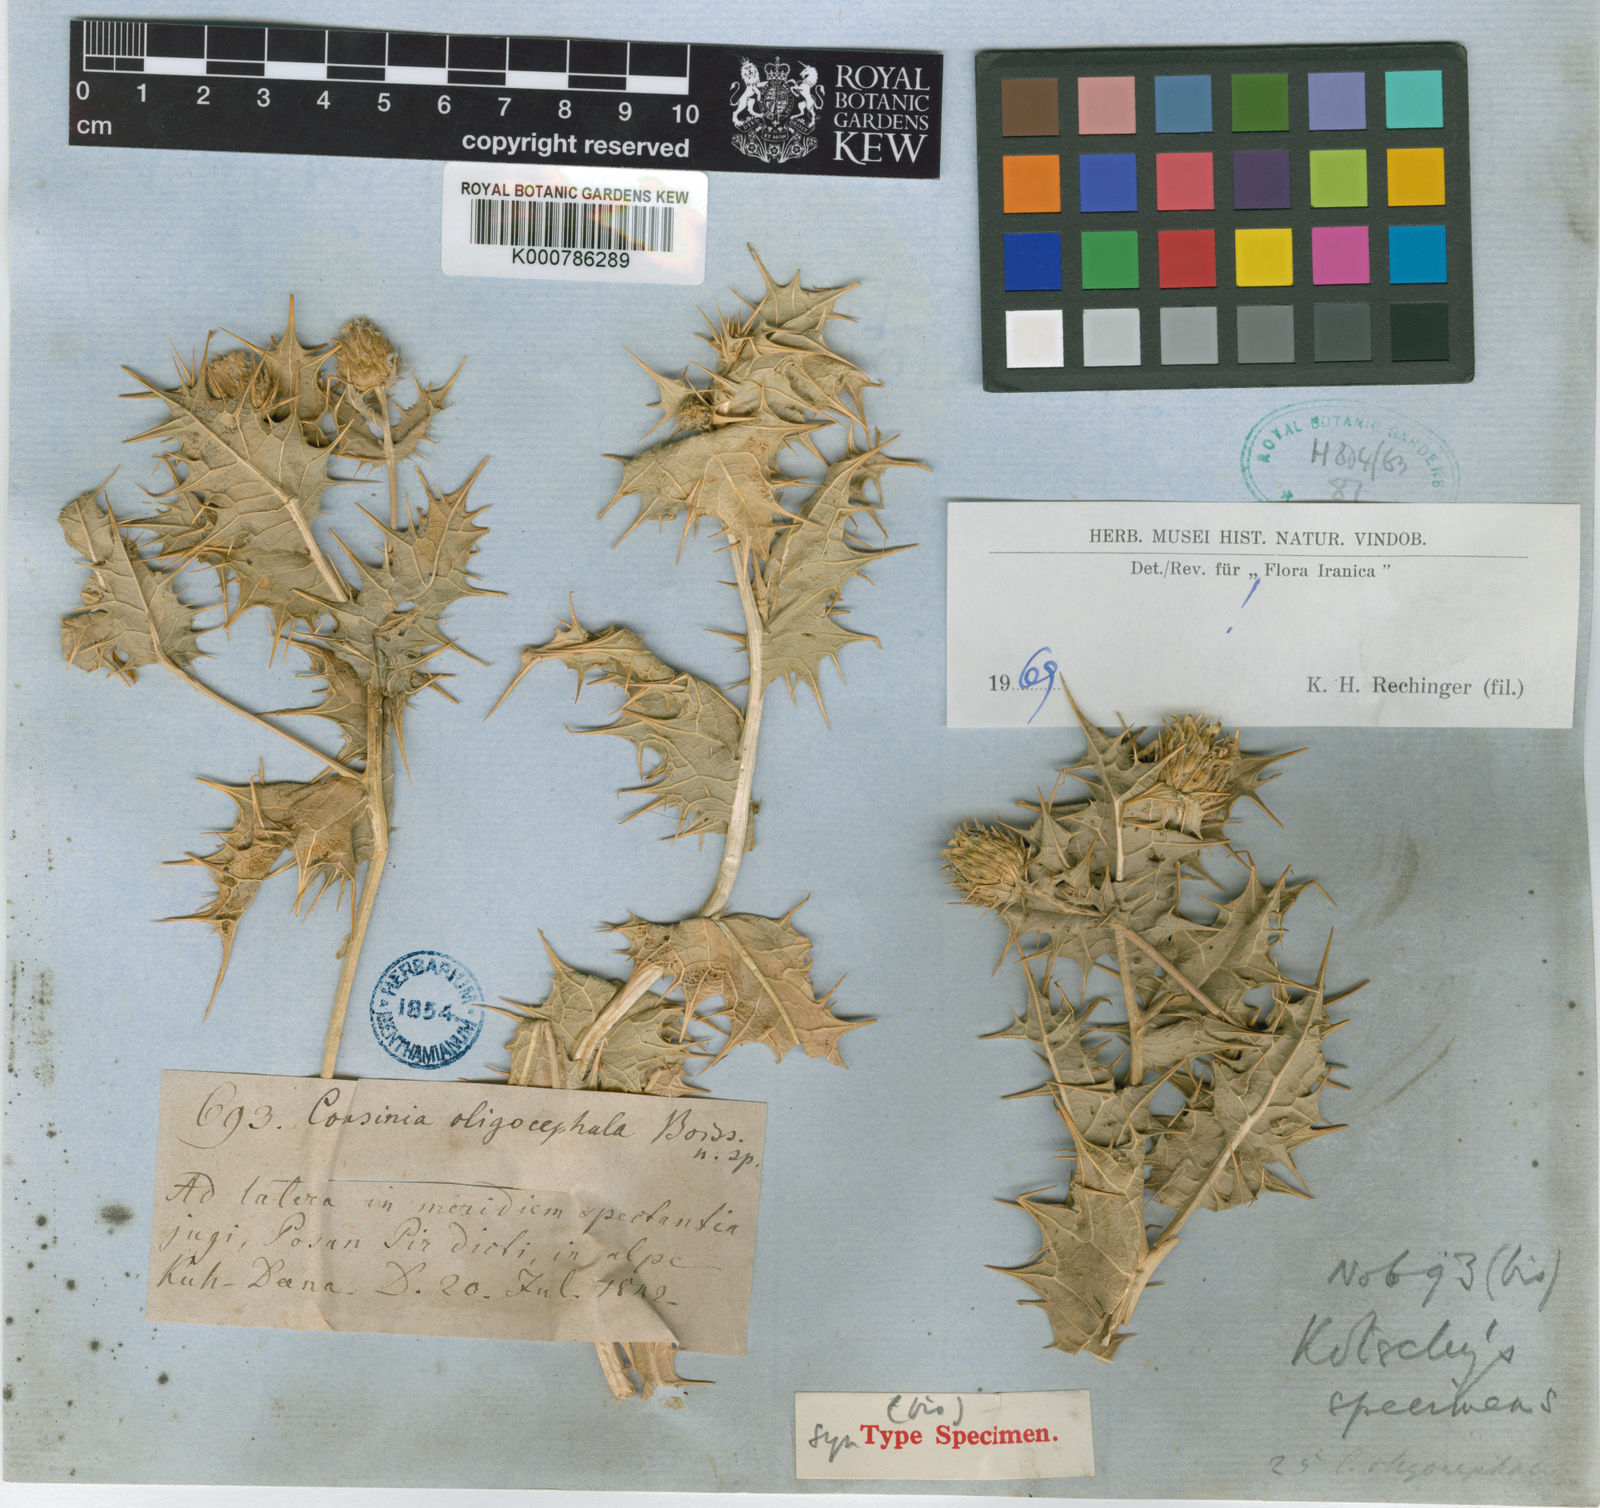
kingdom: Plantae
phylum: Tracheophyta
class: Magnoliopsida
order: Asterales
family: Asteraceae
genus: Cousinia
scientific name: Cousinia oligocephala
